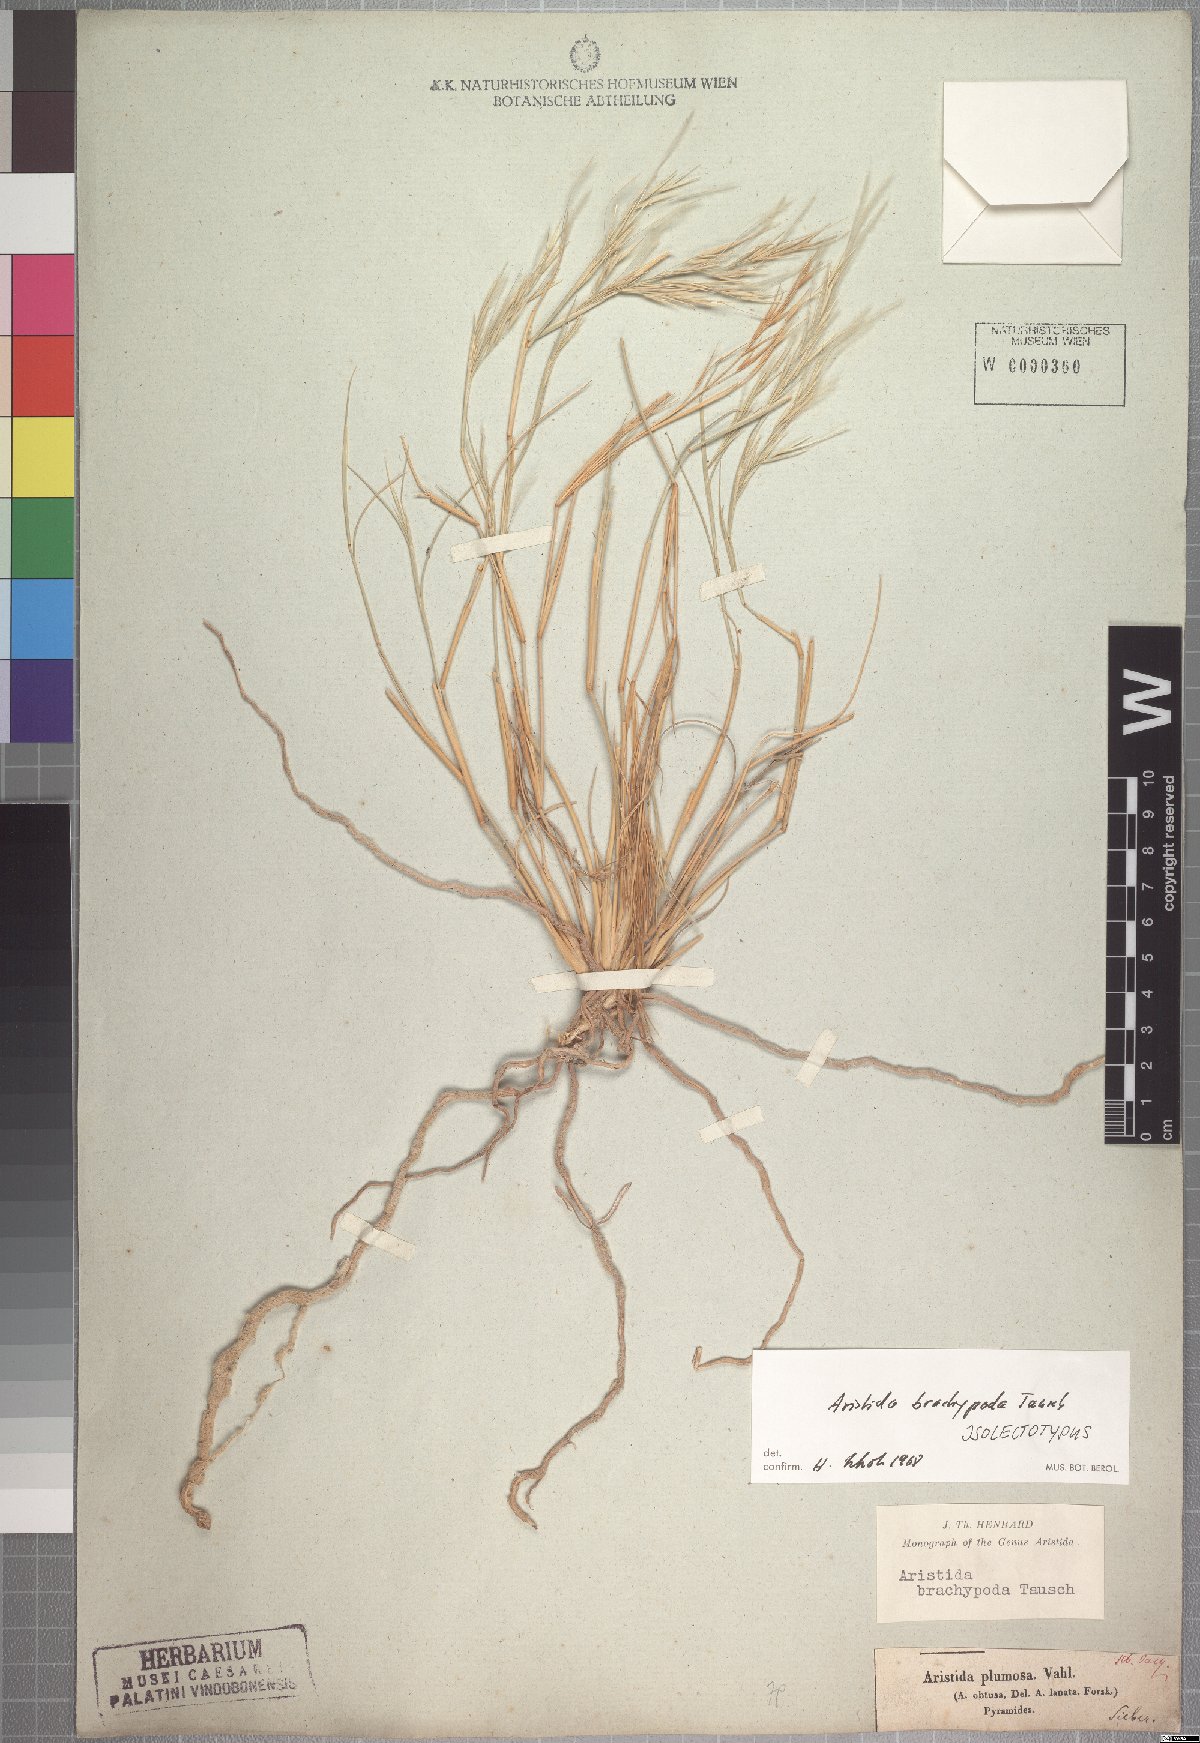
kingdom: Plantae
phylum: Tracheophyta
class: Liliopsida
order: Poales
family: Poaceae
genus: Stipagrostis
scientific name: Stipagrostis plumosa
